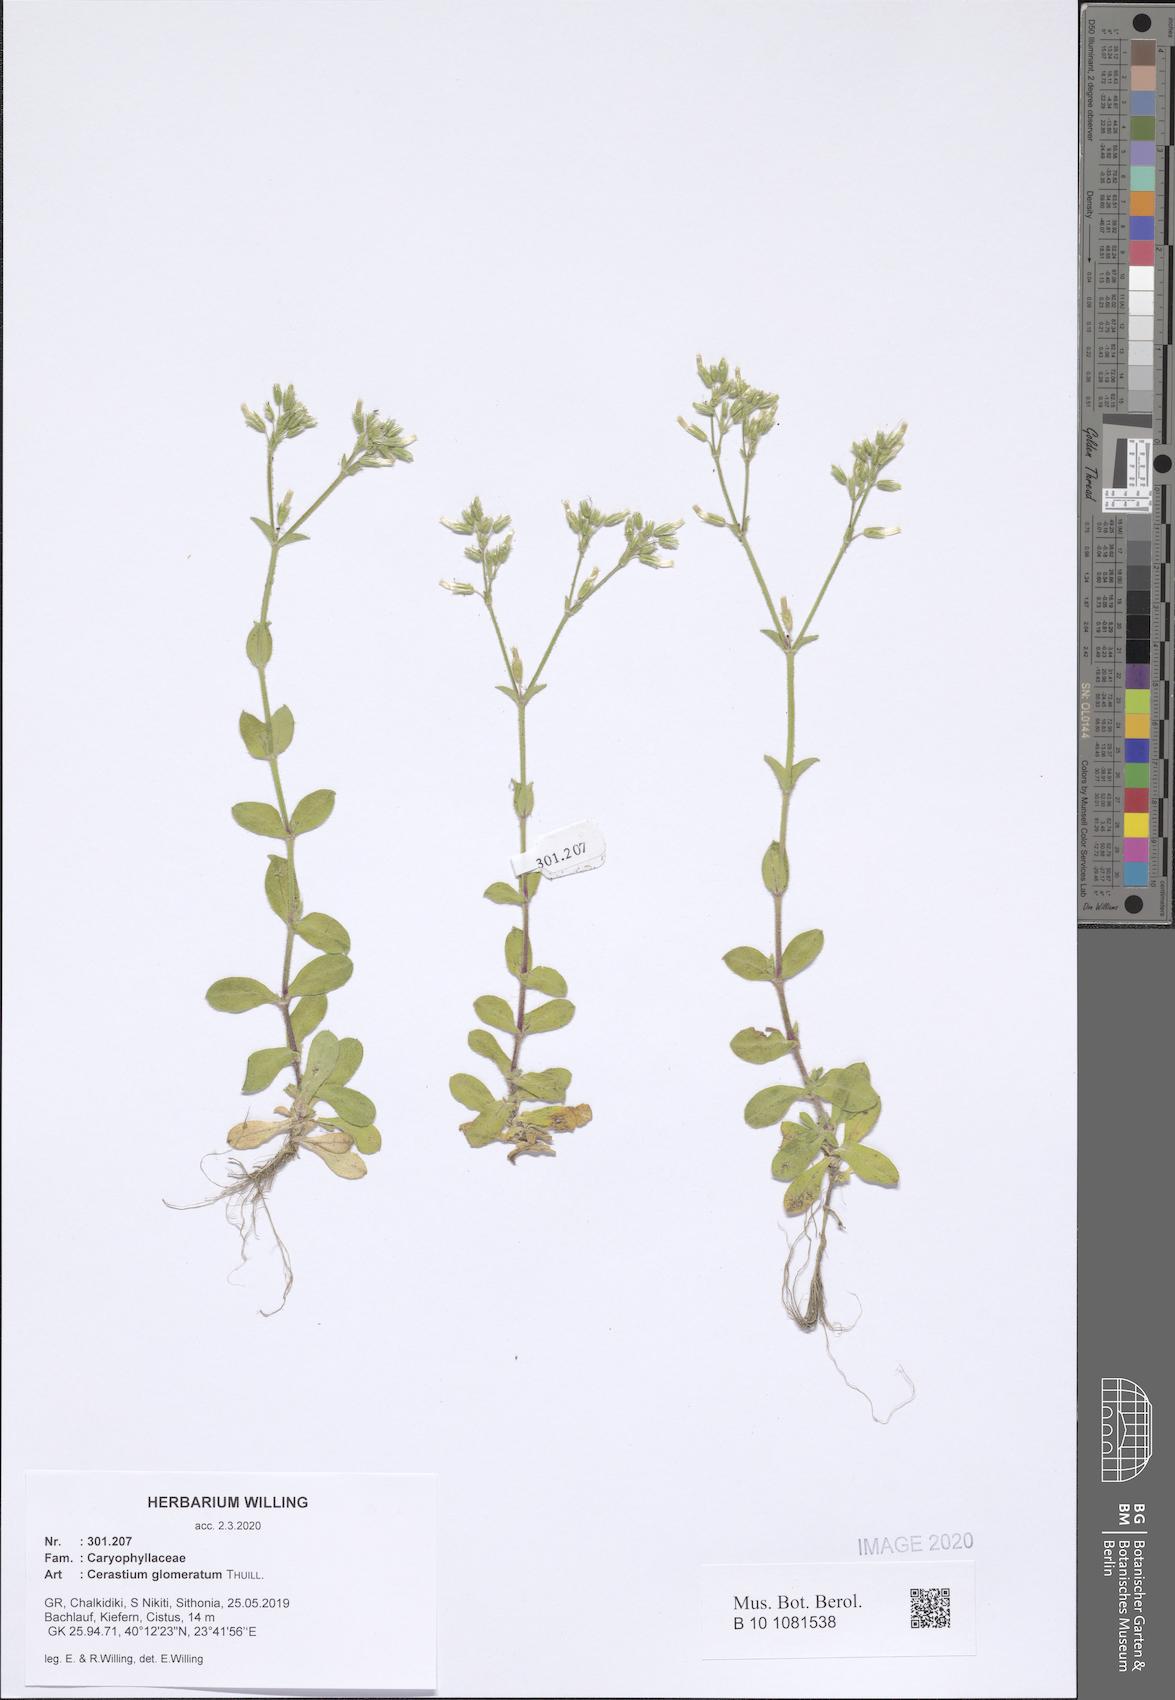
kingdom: Plantae
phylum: Tracheophyta
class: Magnoliopsida
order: Caryophyllales
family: Caryophyllaceae
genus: Cerastium
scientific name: Cerastium glomeratum
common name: Sticky chickweed
